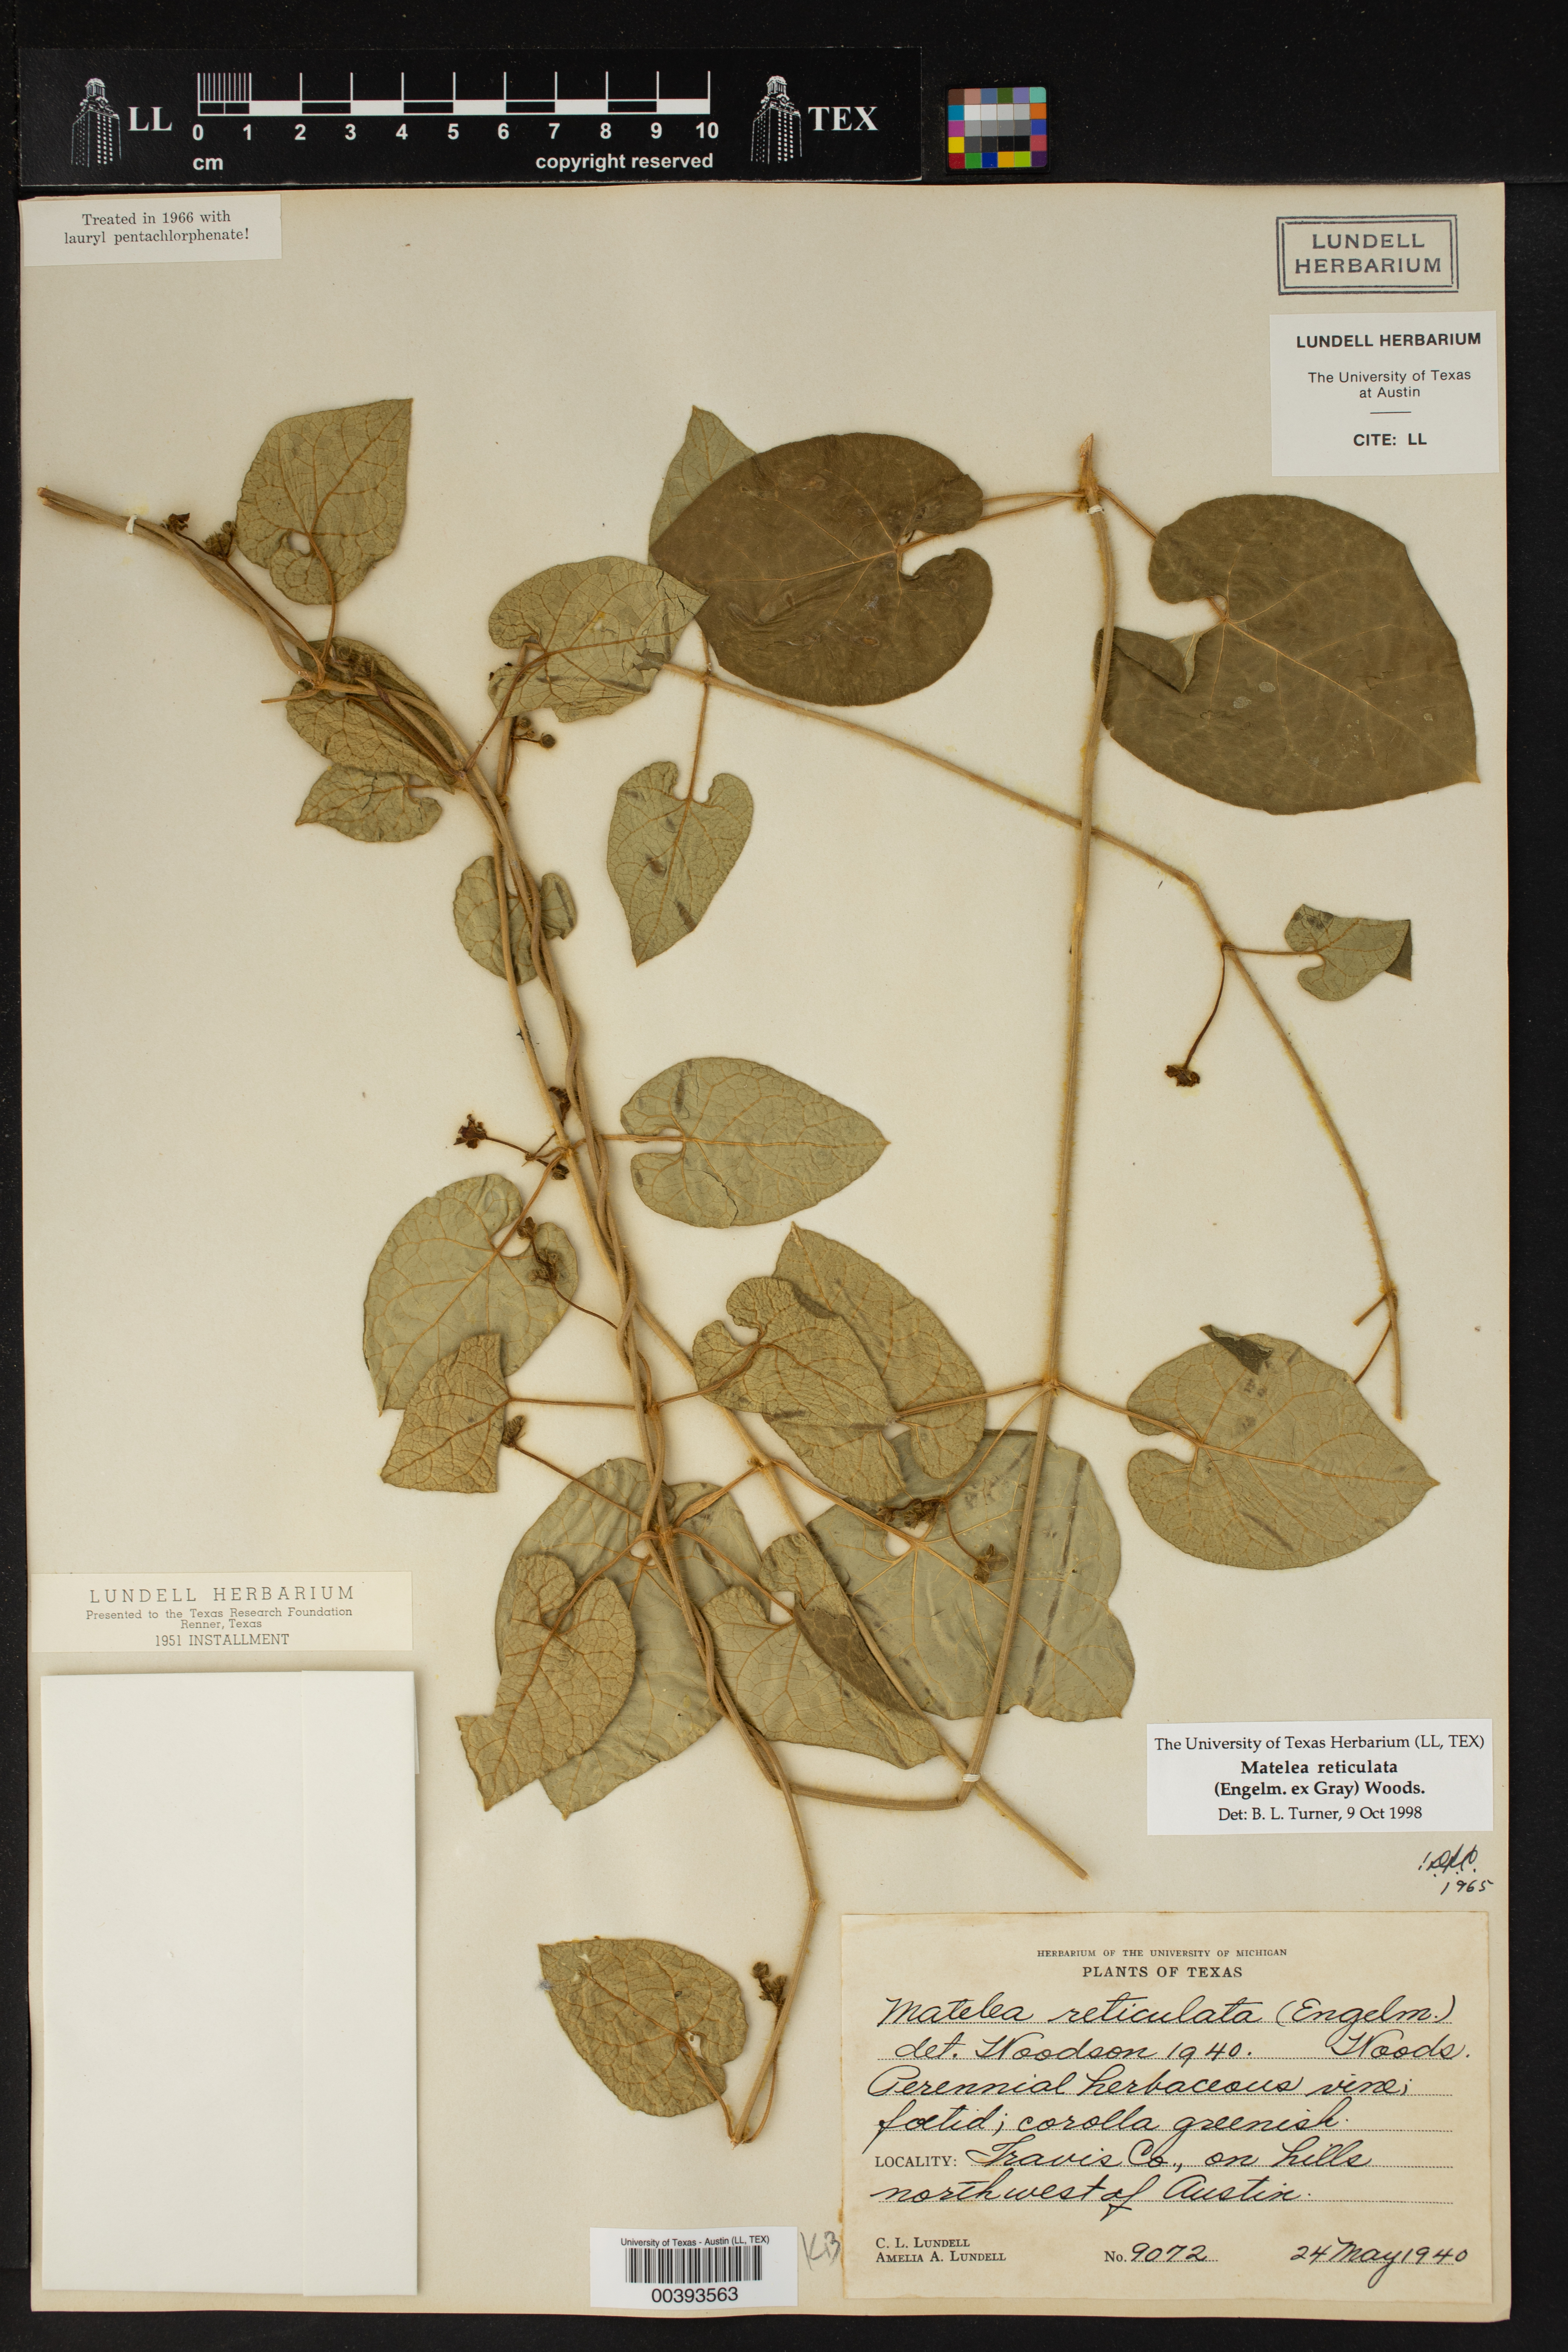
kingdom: Plantae
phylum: Tracheophyta
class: Magnoliopsida
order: Gentianales
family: Apocynaceae
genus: Dictyanthus
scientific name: Dictyanthus reticulatus
